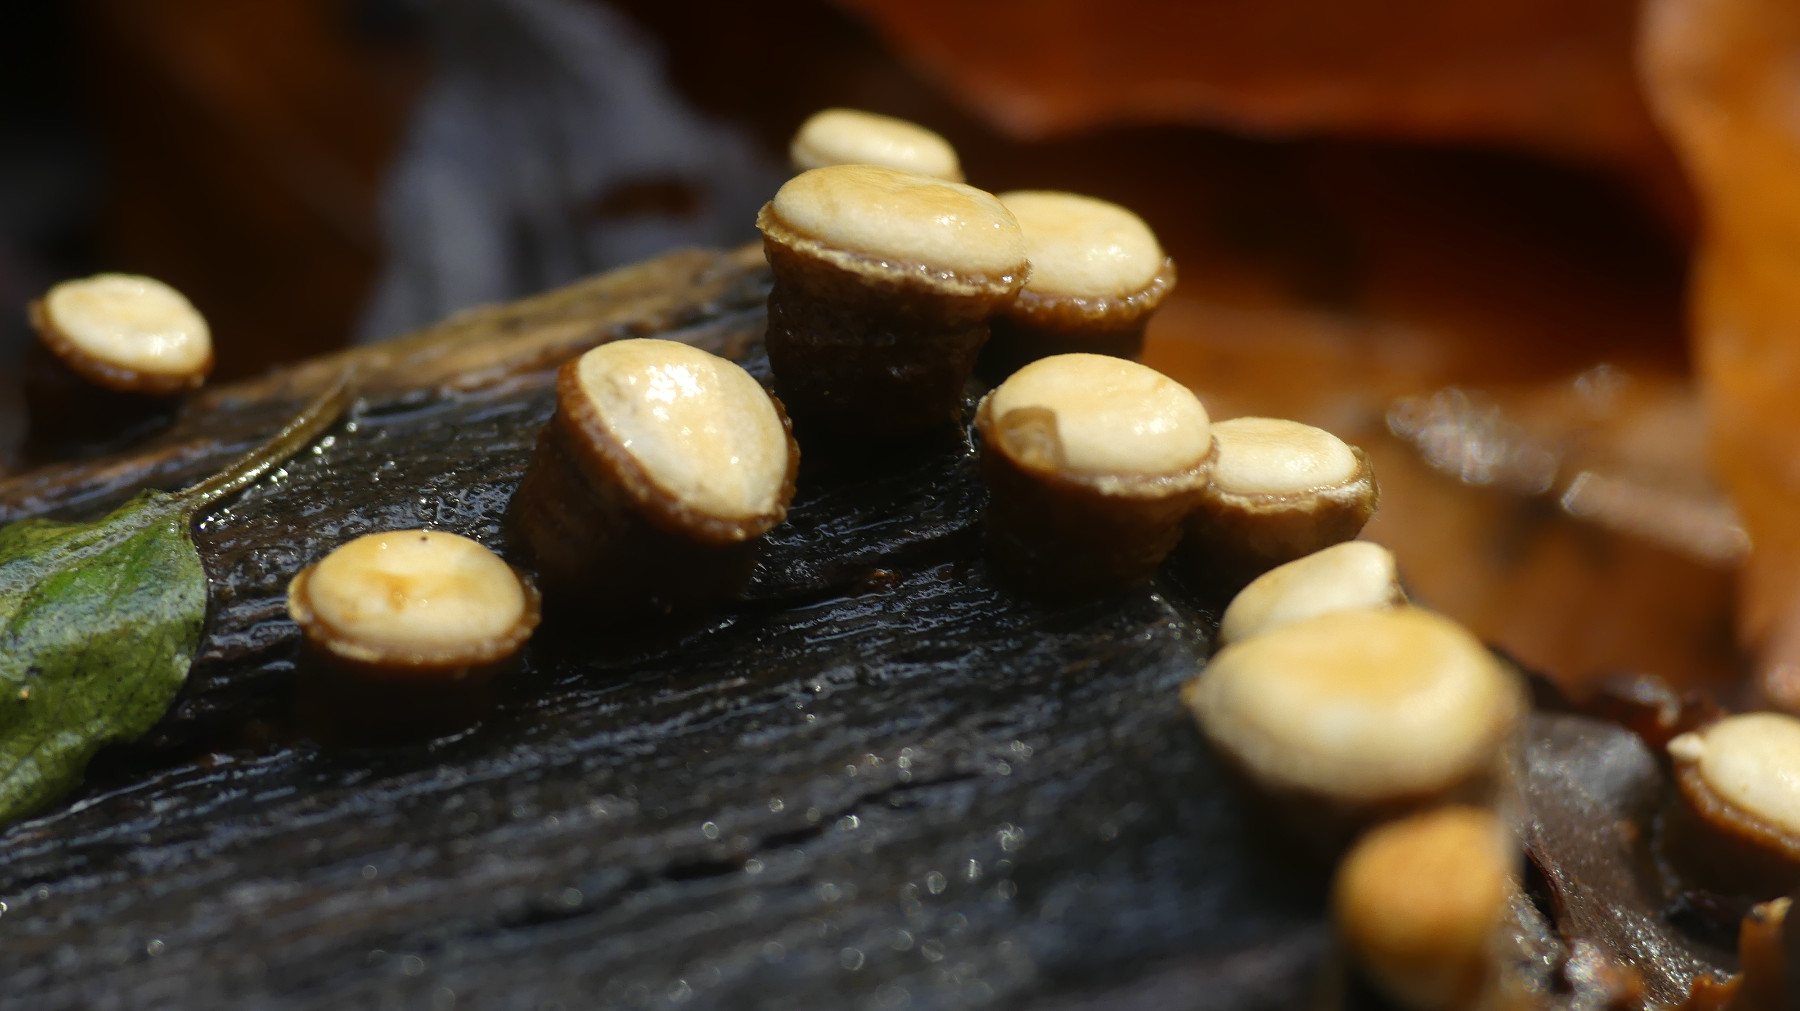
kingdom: Fungi
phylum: Basidiomycota
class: Agaricomycetes
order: Agaricales
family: Nidulariaceae
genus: Crucibulum
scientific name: Crucibulum crucibuliforme
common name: krukkesvamp
